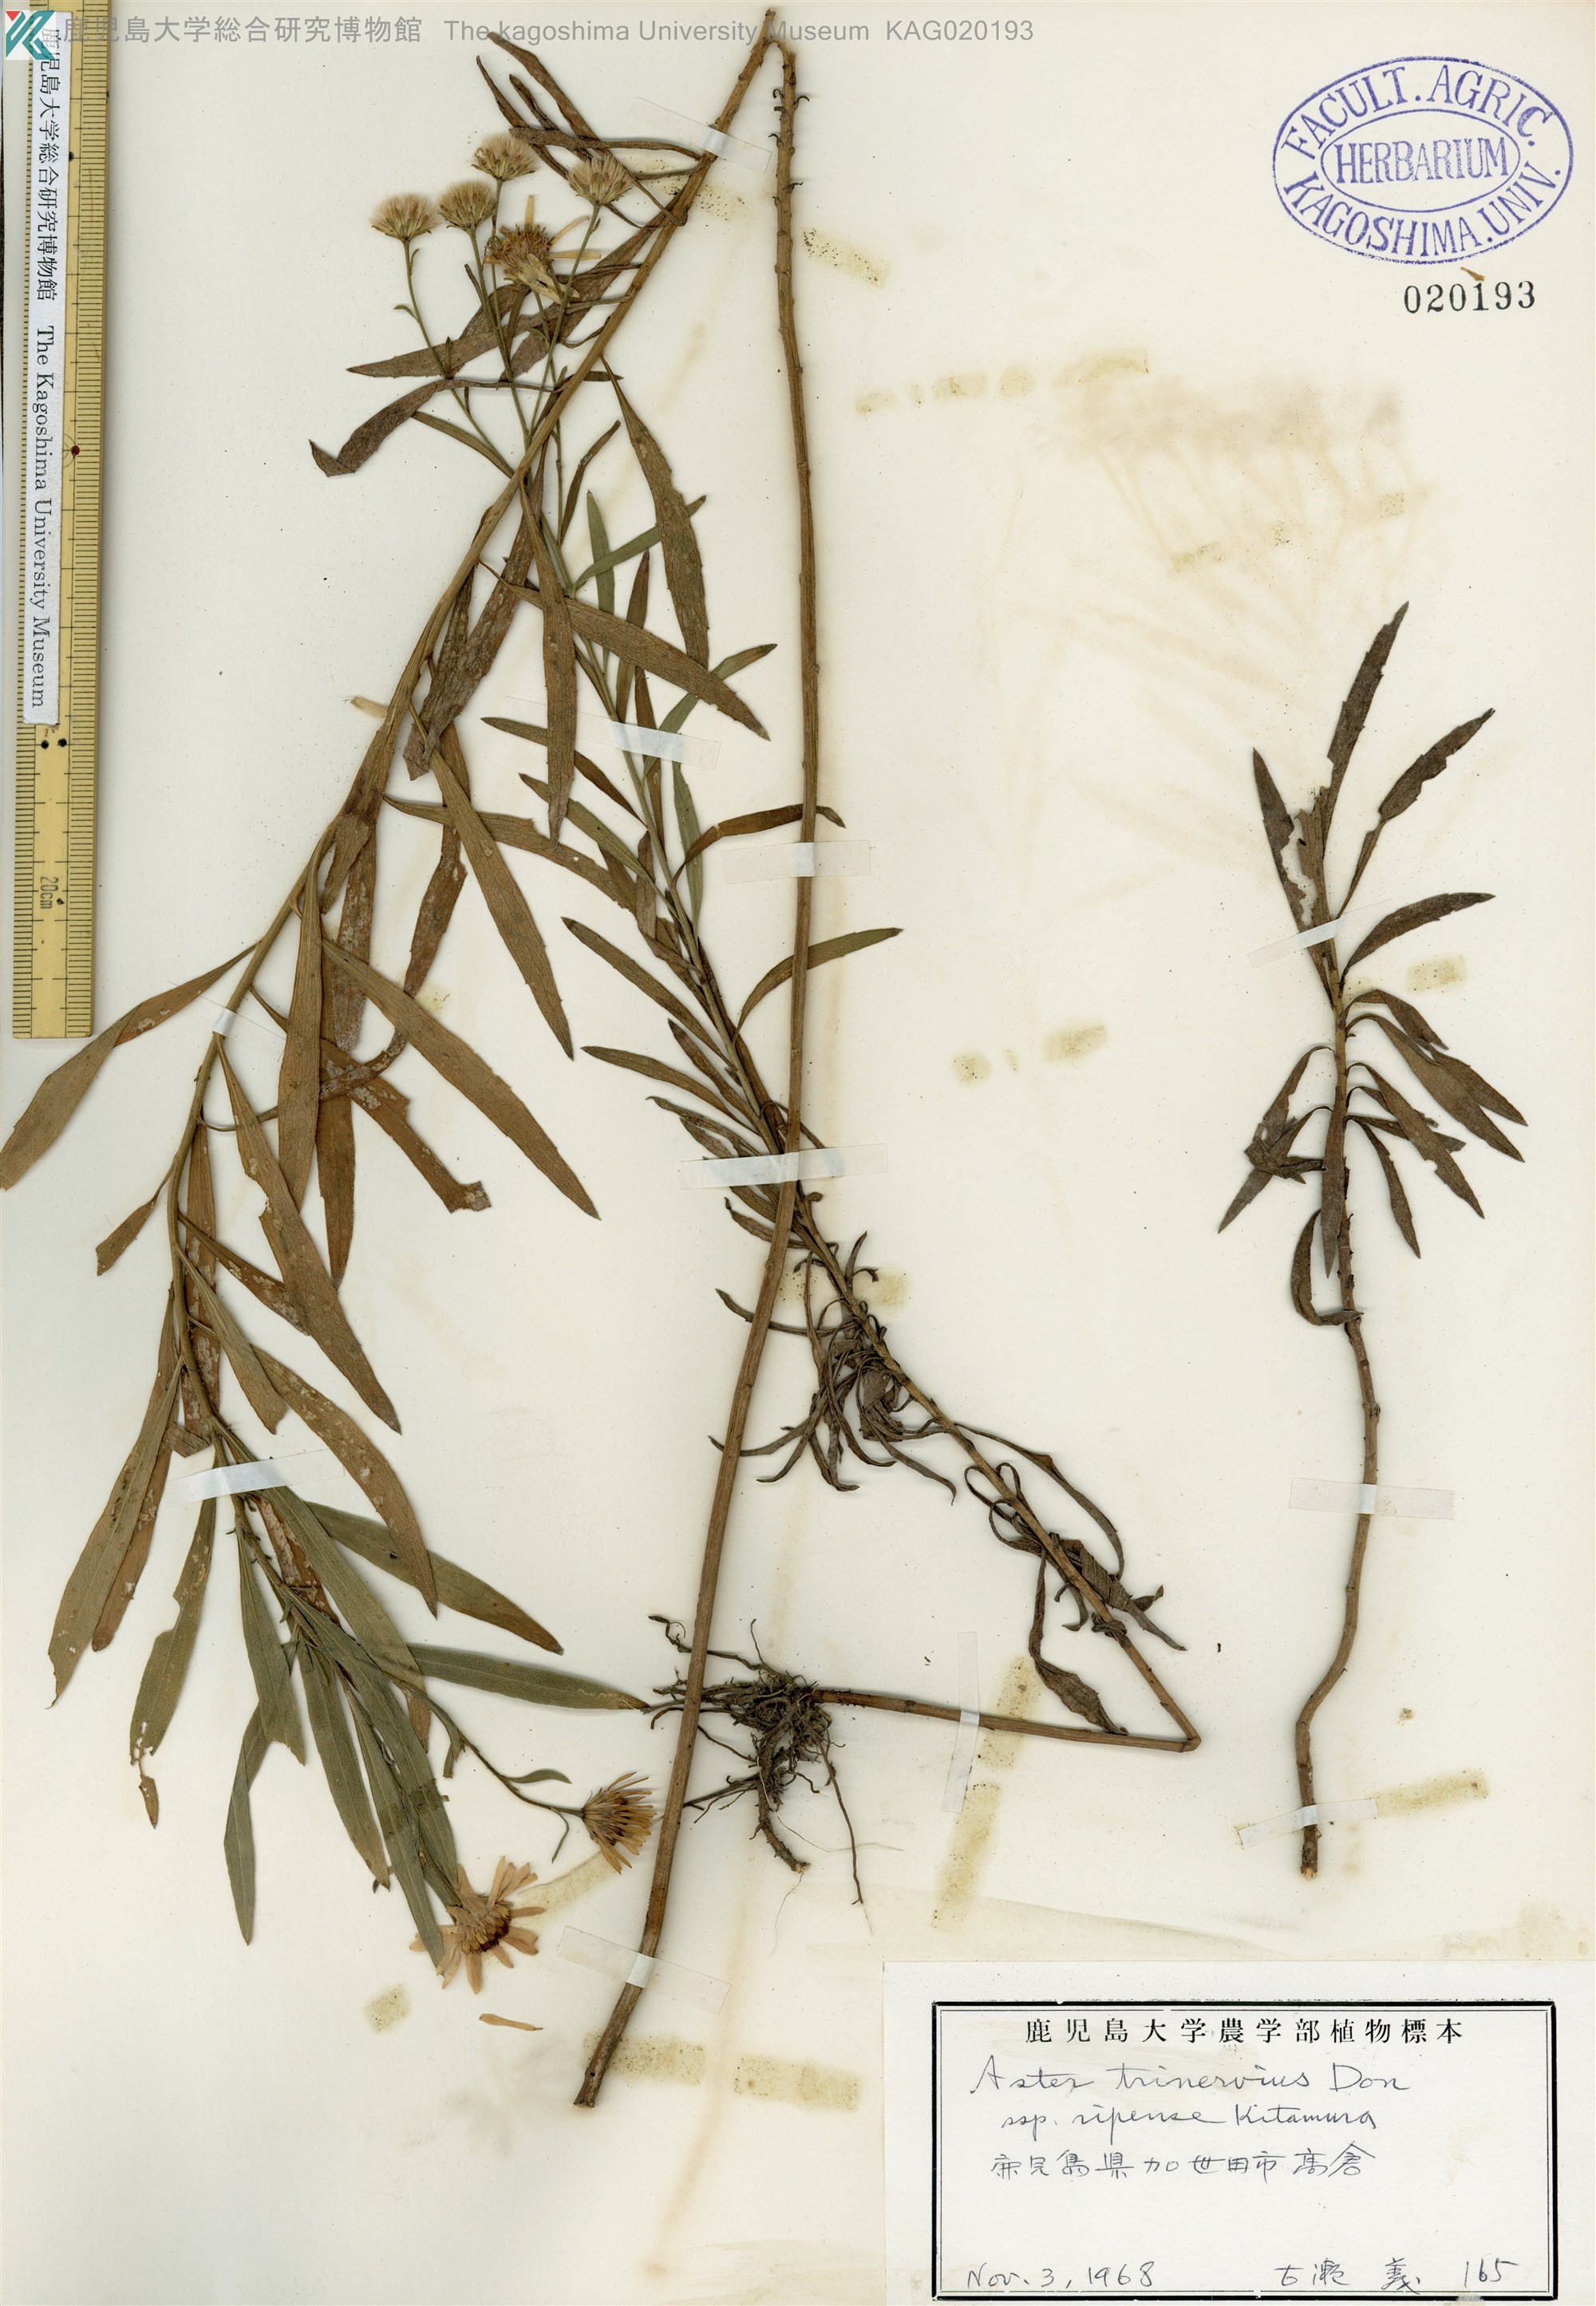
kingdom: Plantae
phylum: Tracheophyta
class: Magnoliopsida
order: Asterales
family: Asteraceae
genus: Aster
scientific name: Aster microcephalus
